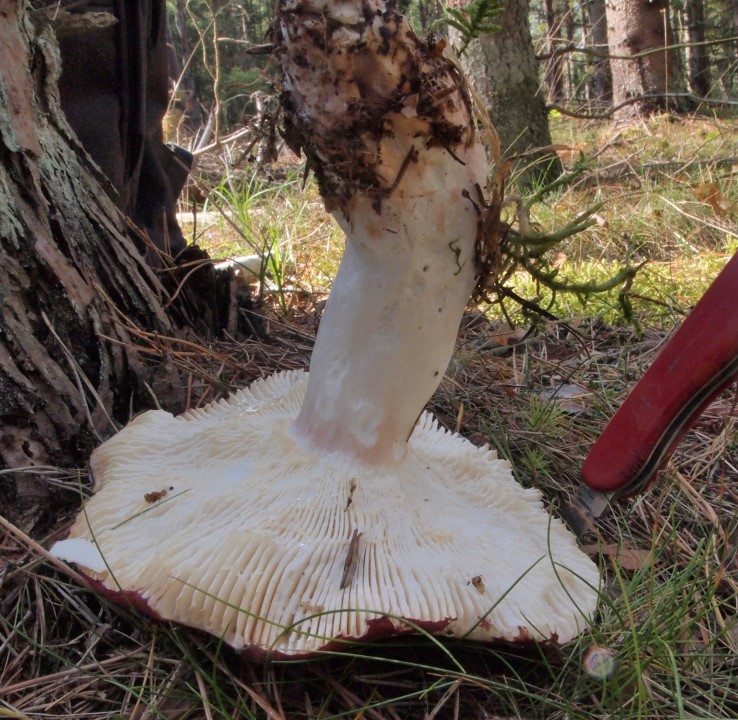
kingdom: Fungi
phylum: Basidiomycota
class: Agaricomycetes
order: Russulales
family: Russulaceae
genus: Russula
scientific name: Russula paludosa
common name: prægtig skørhat
